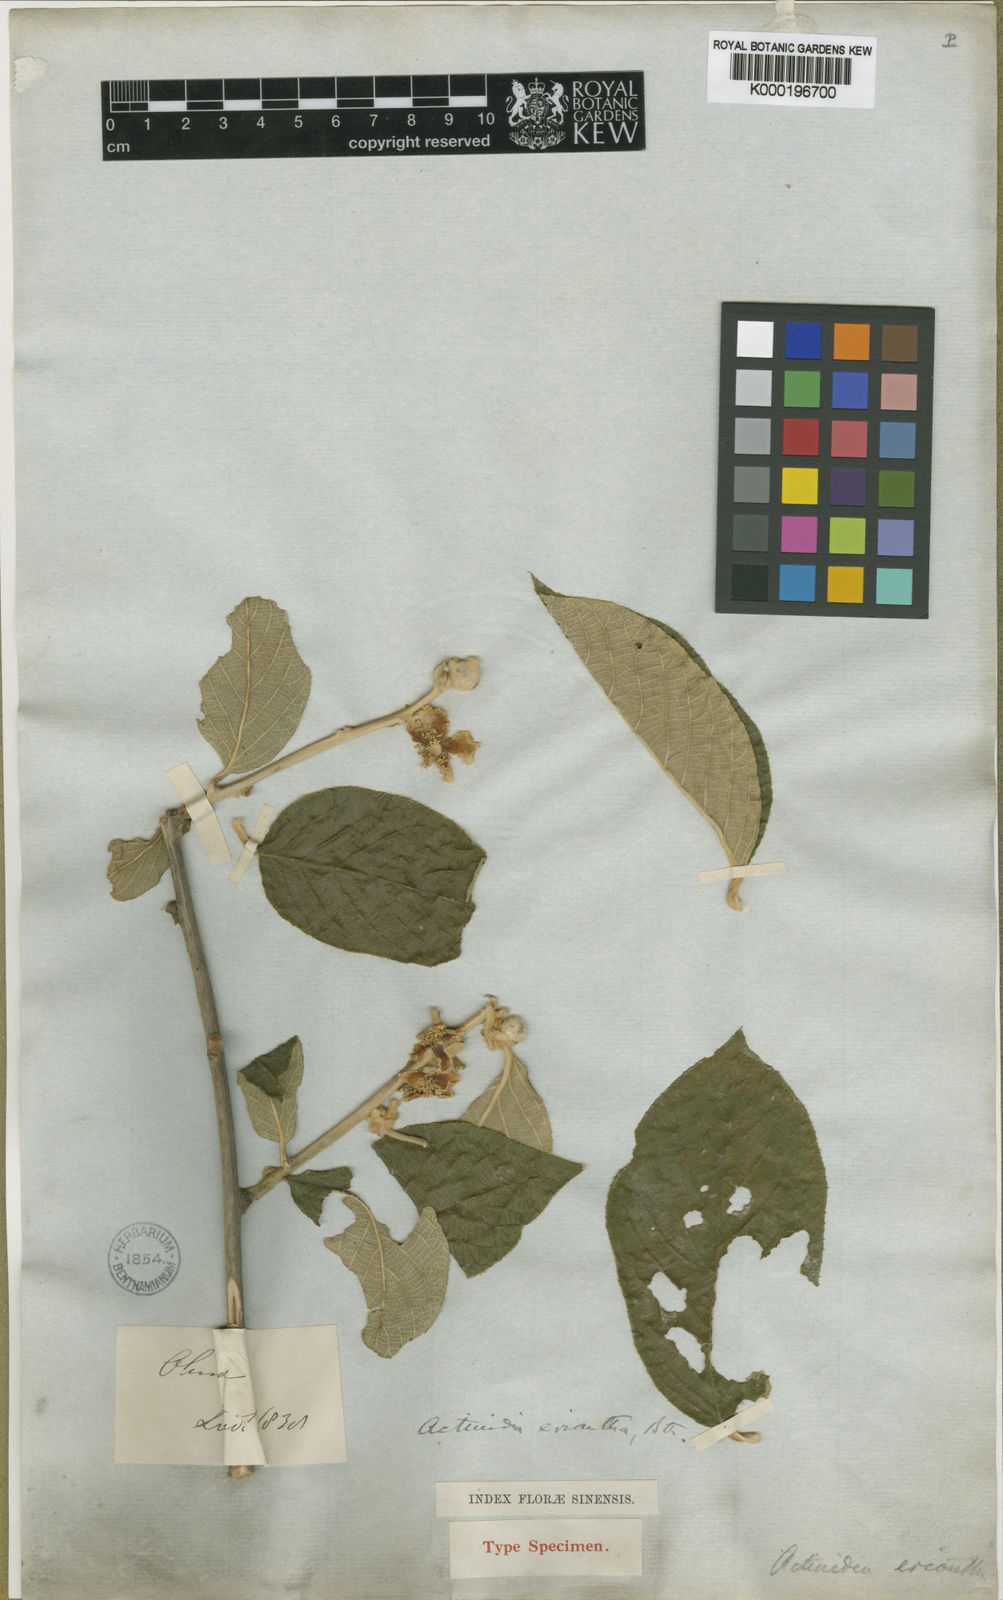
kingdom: Plantae
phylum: Tracheophyta
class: Magnoliopsida
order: Ericales
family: Actinidiaceae
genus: Actinidia
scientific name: Actinidia eriantha
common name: Velvetvine
